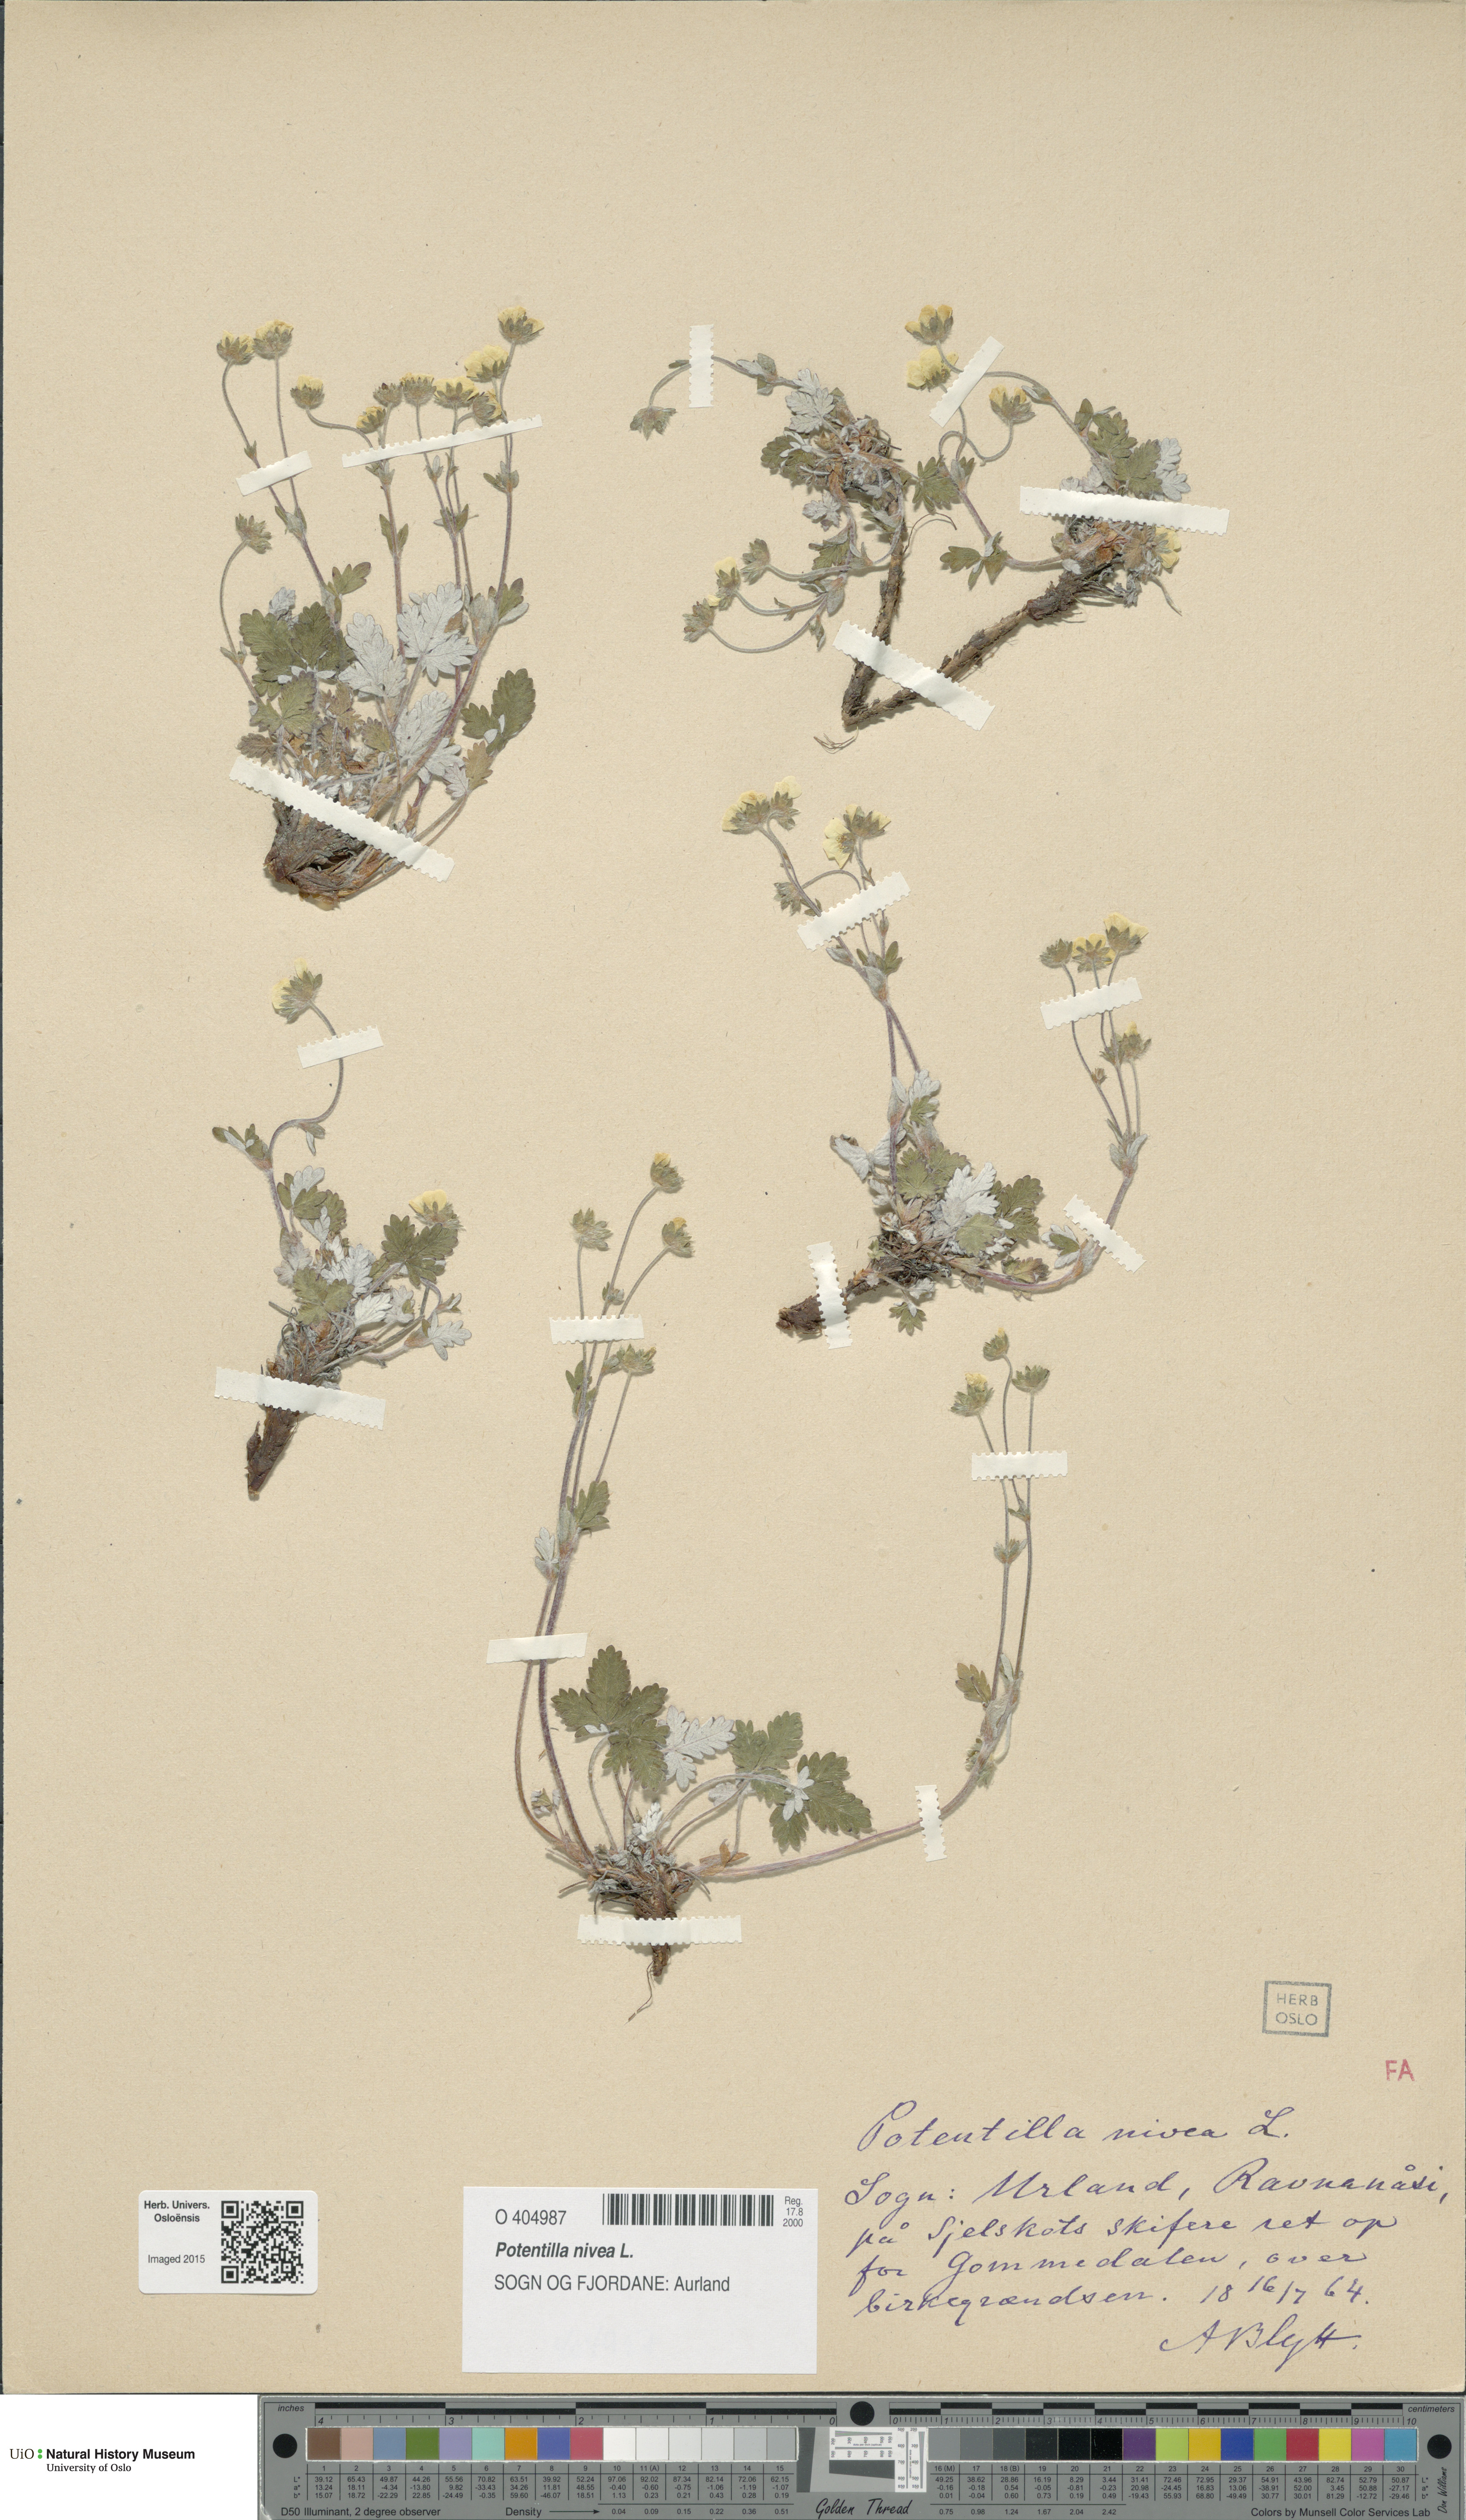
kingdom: Plantae
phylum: Tracheophyta
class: Magnoliopsida
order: Rosales
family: Rosaceae
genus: Potentilla
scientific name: Potentilla arenosa
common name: Bluff cinquefoil
